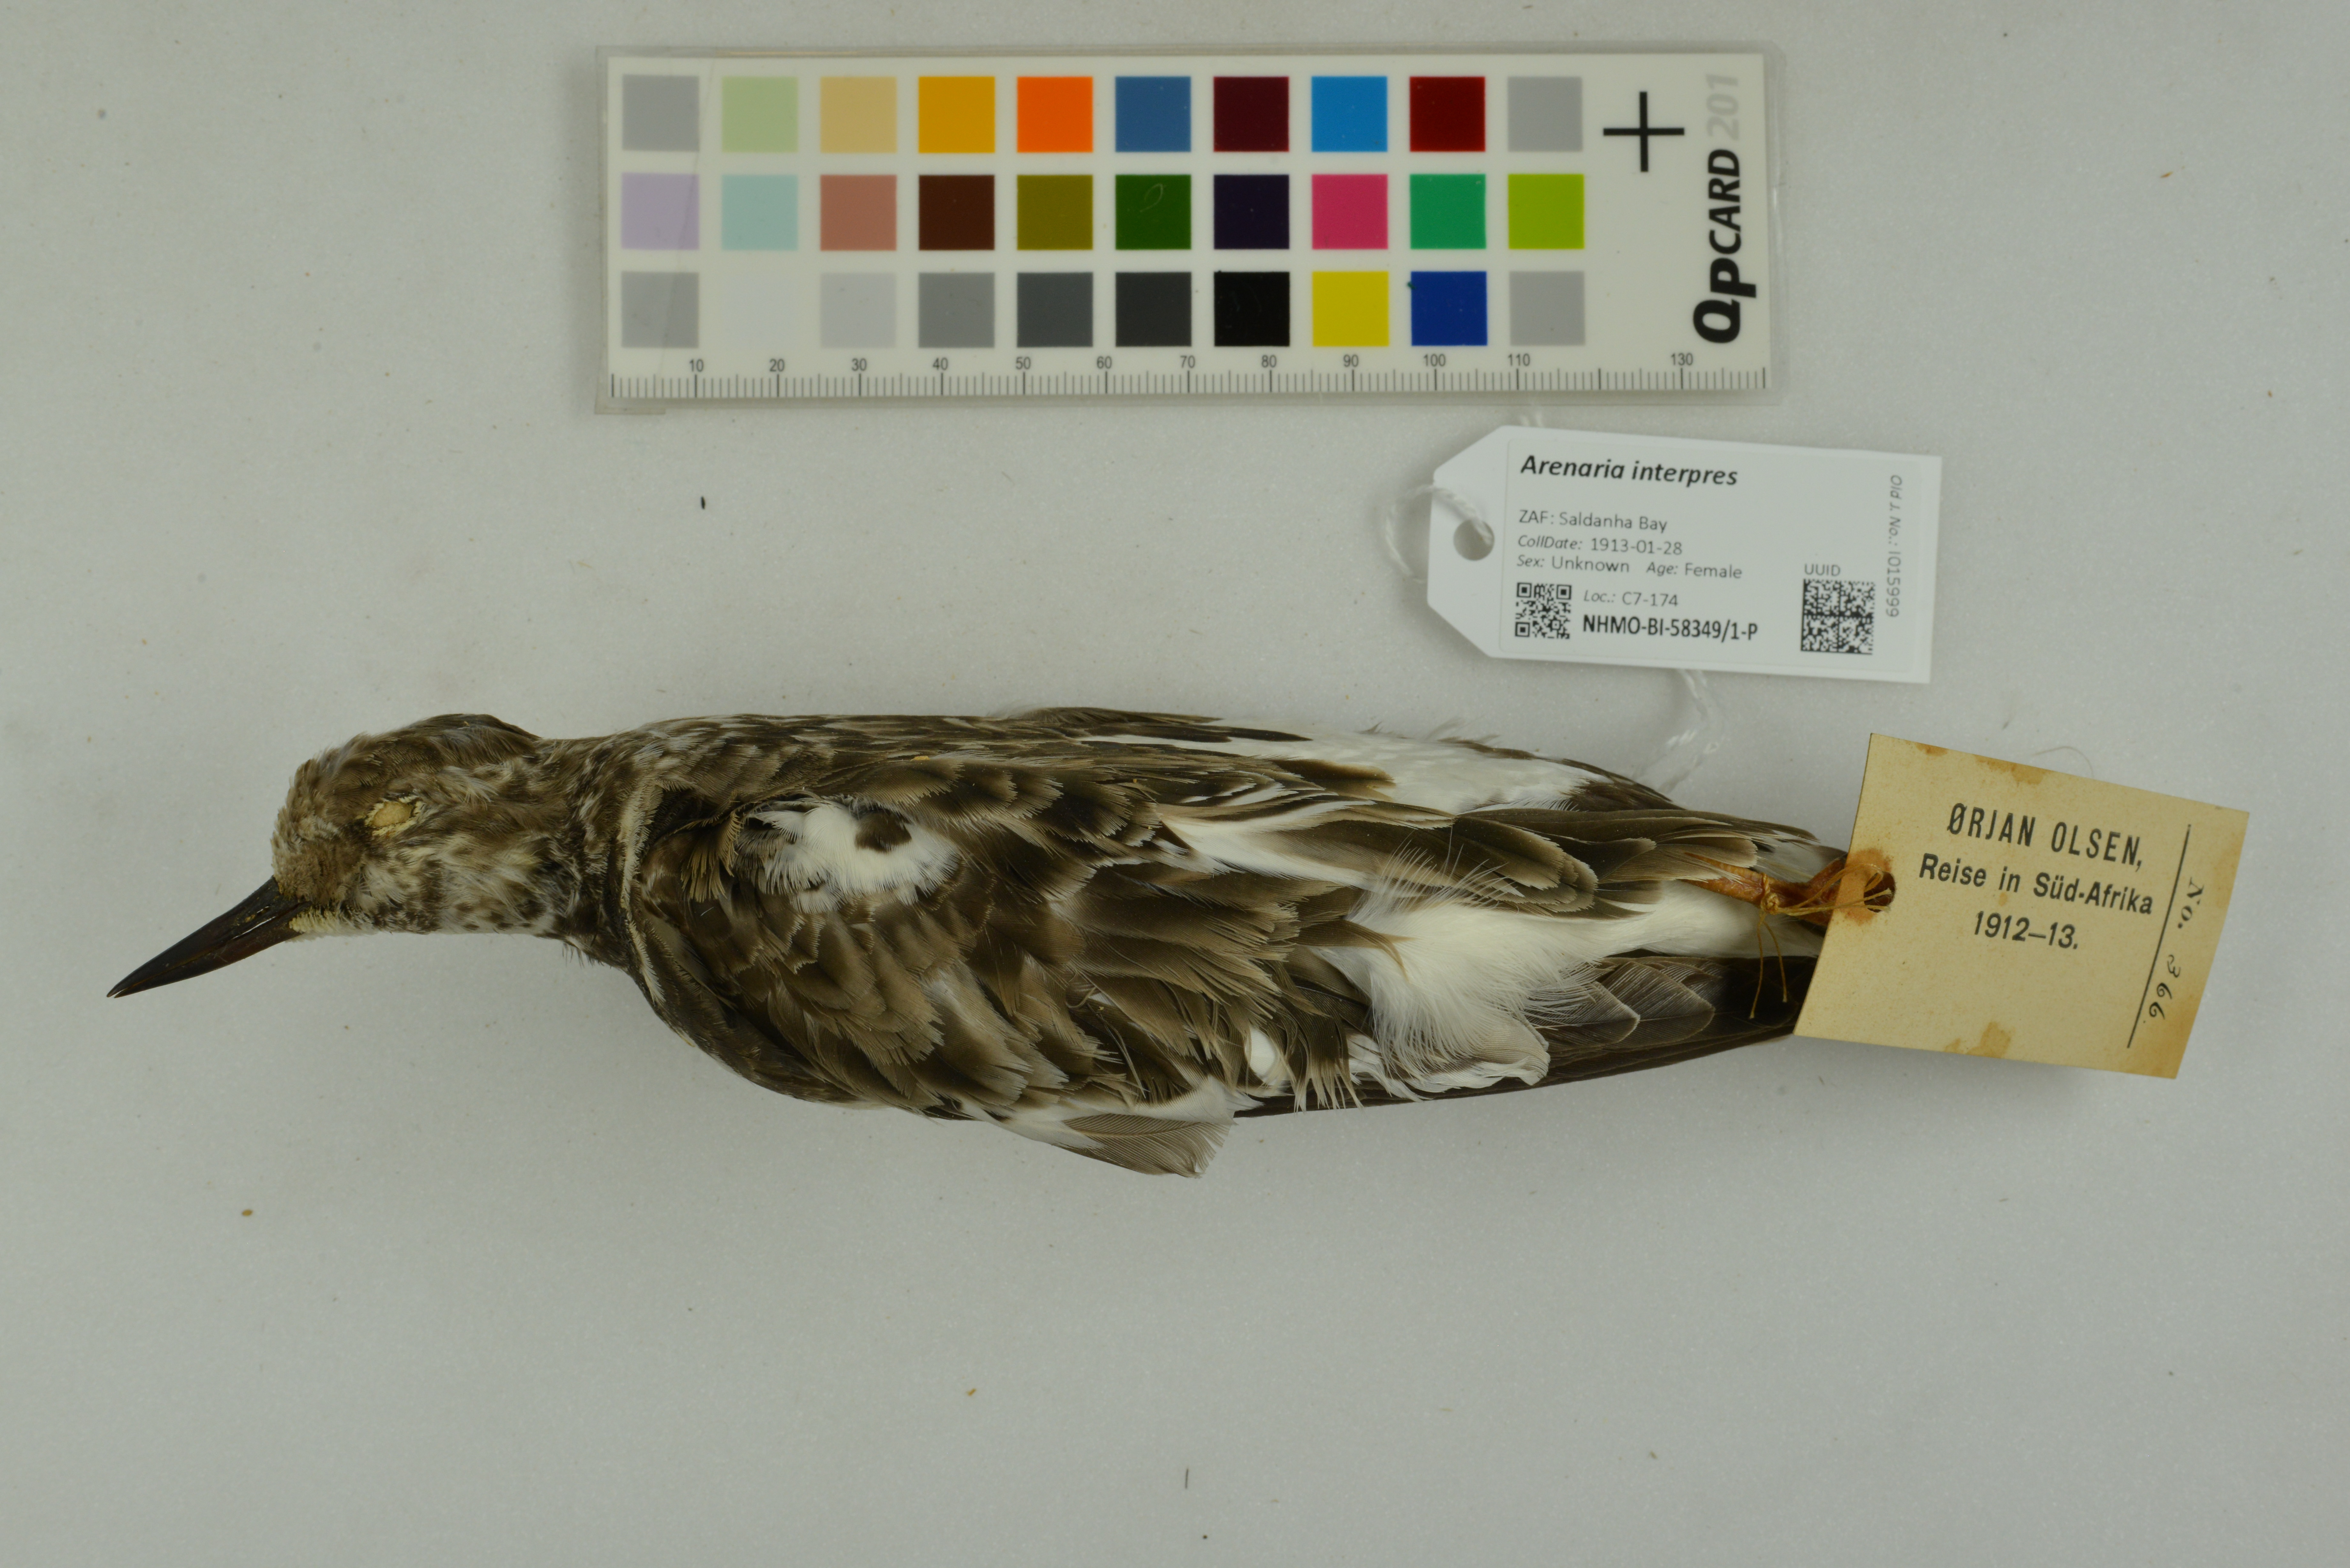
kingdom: Animalia
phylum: Chordata
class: Aves
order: Charadriiformes
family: Scolopacidae
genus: Arenaria
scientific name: Arenaria interpres
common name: Ruddy turnstone
